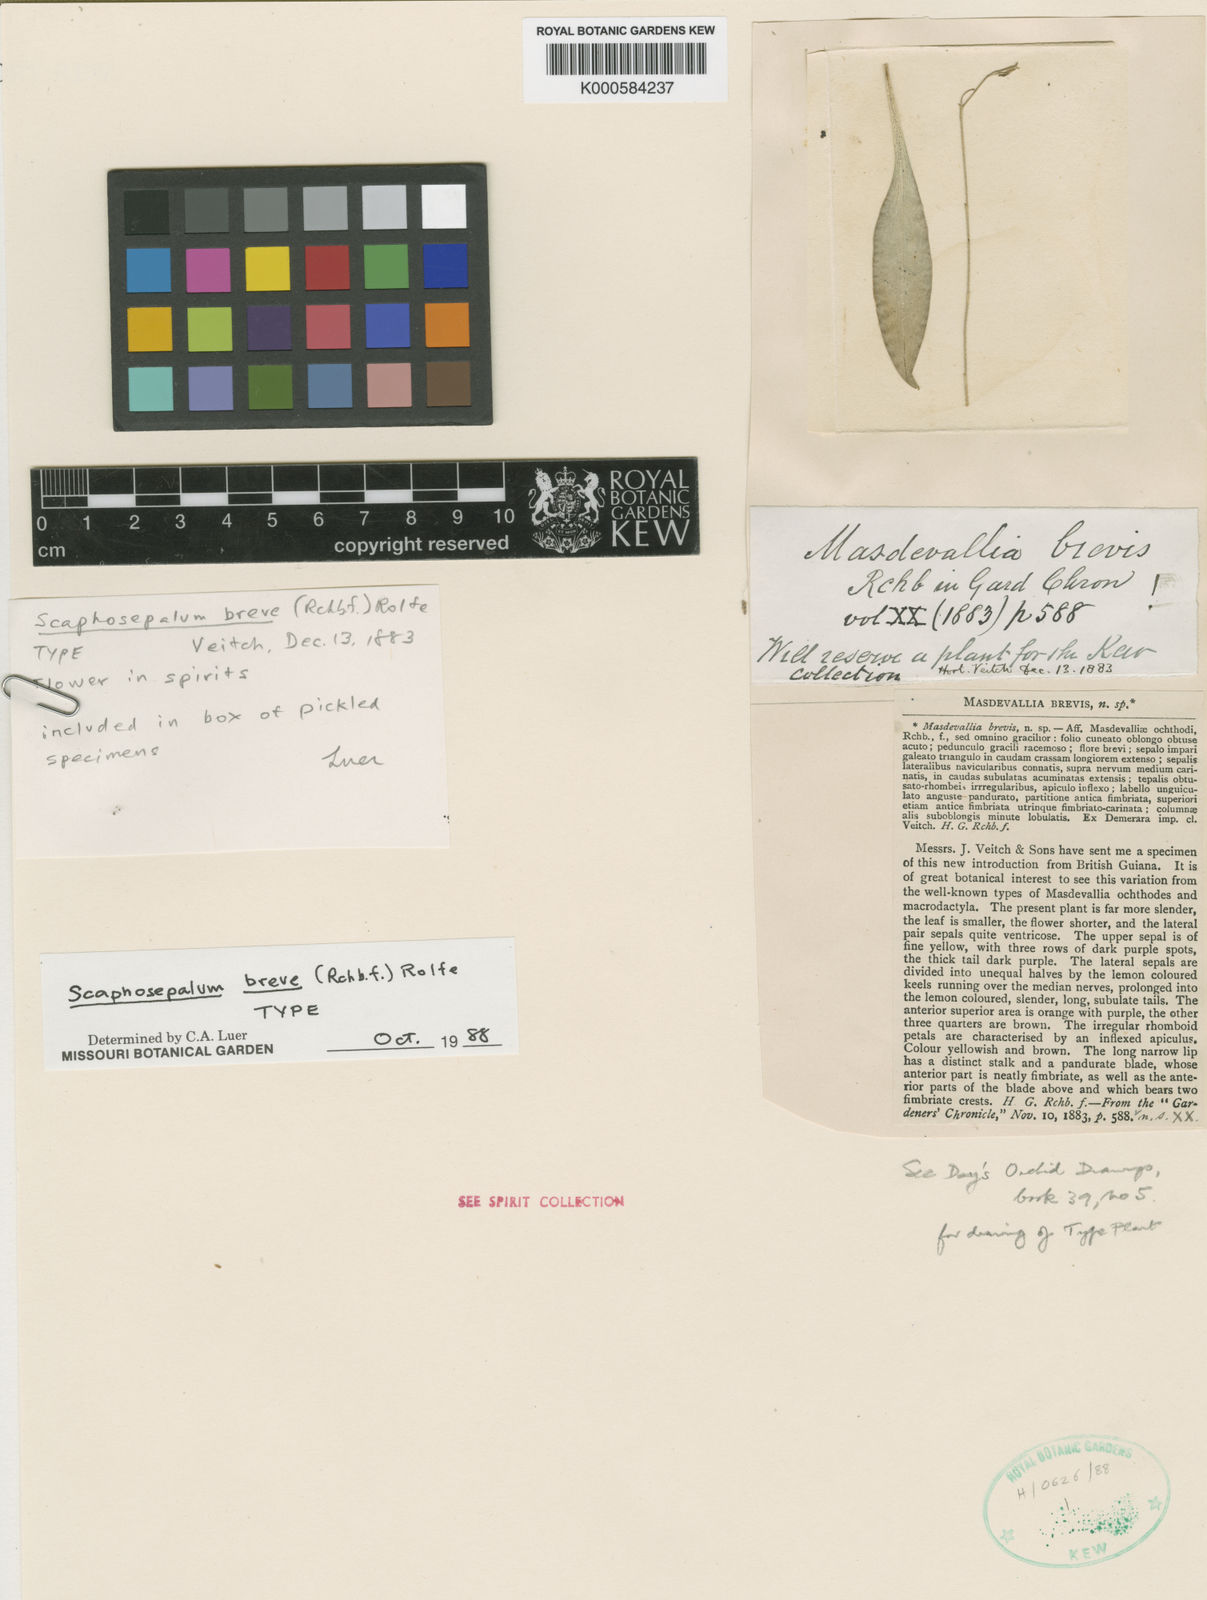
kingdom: Plantae
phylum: Tracheophyta
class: Liliopsida
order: Asparagales
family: Orchidaceae
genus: Scaphosepalum
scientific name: Scaphosepalum breve
